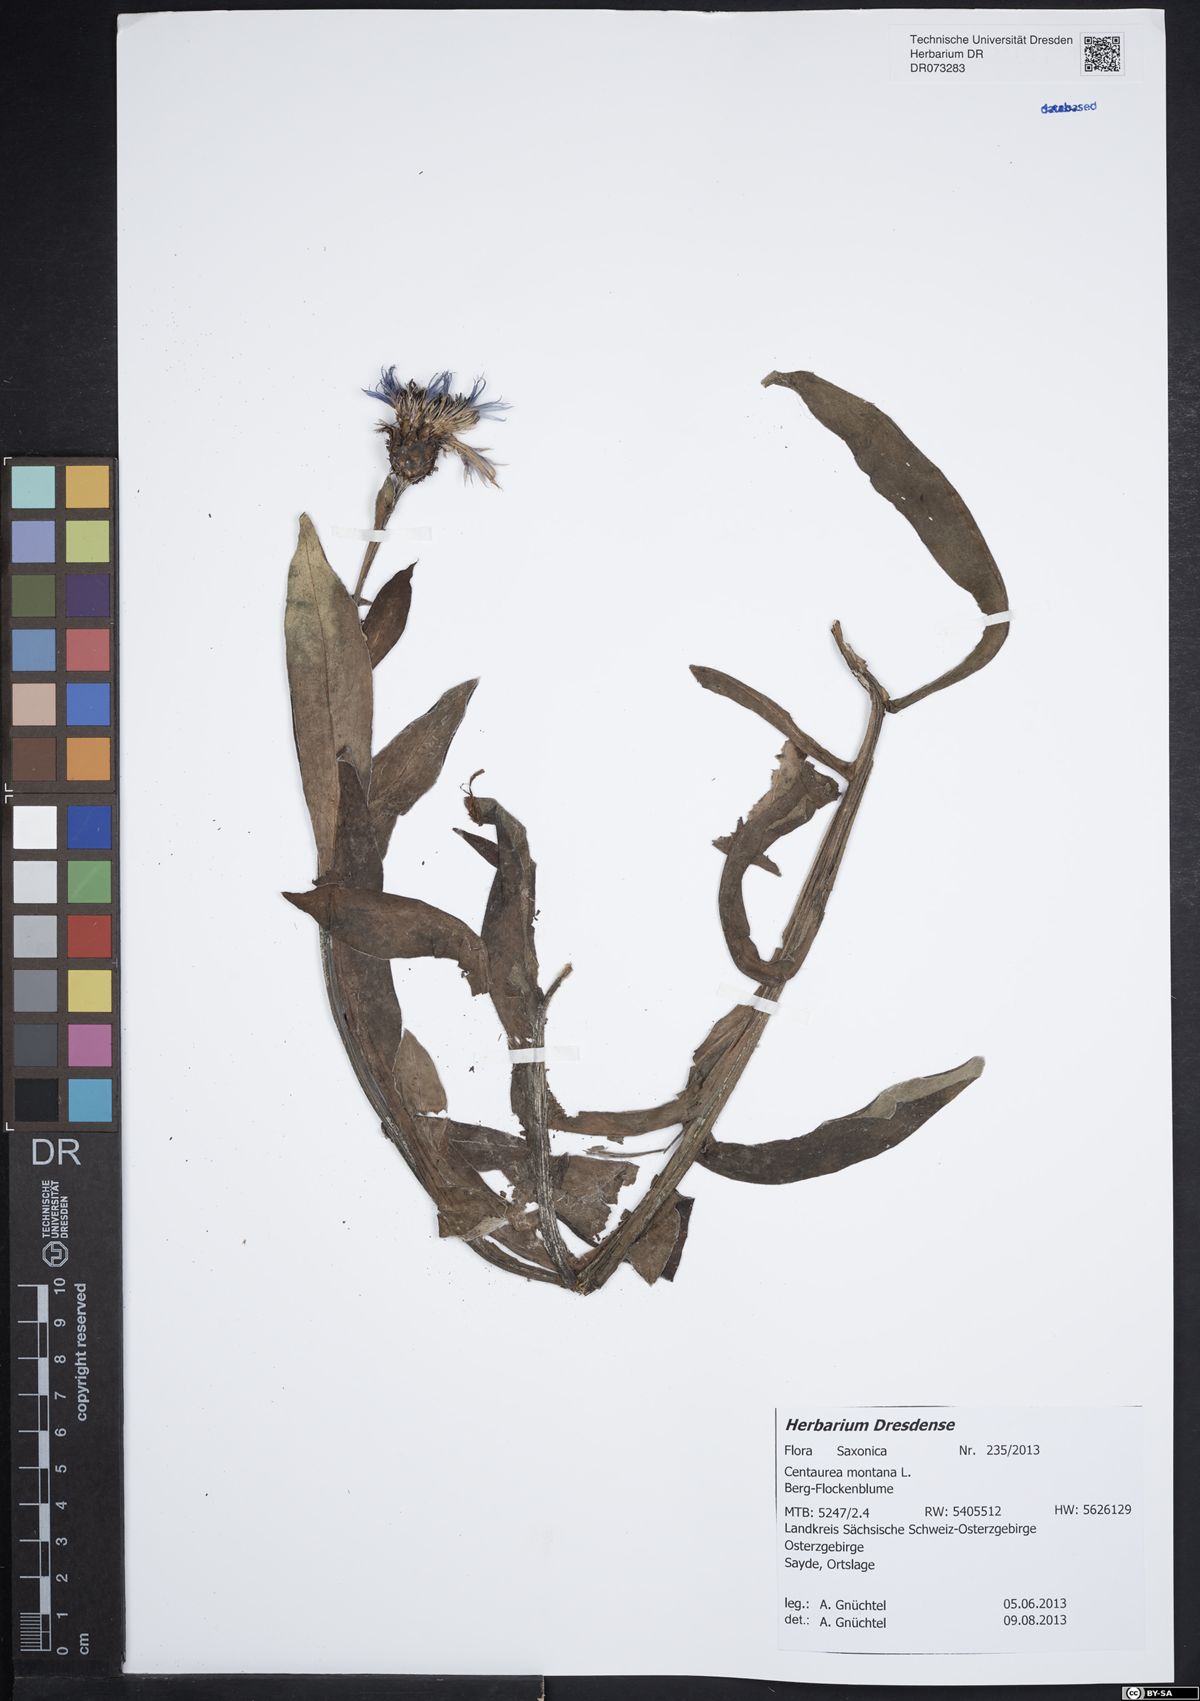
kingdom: Plantae
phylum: Tracheophyta
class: Magnoliopsida
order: Asterales
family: Asteraceae
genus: Centaurea
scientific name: Centaurea montana
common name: Perennial cornflower
